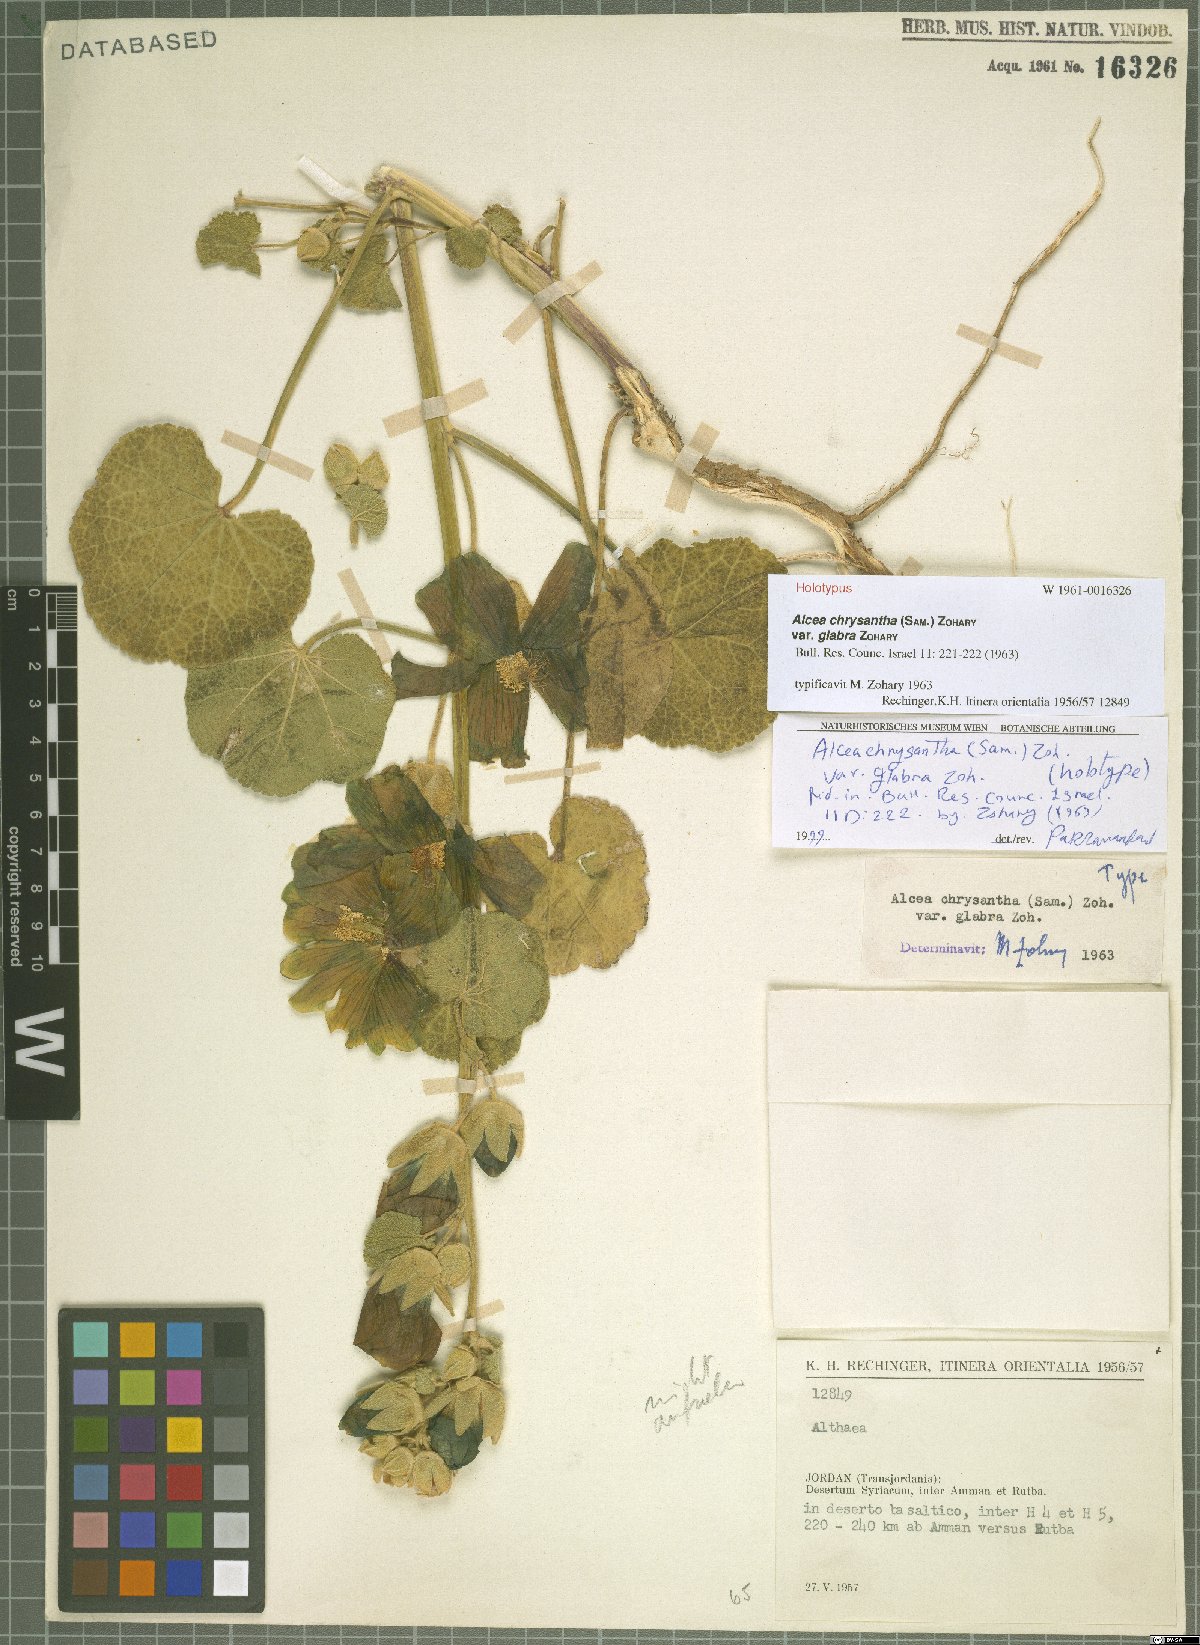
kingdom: Plantae
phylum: Tracheophyta
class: Magnoliopsida
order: Malvales
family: Malvaceae
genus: Alcea
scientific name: Alcea chrysantha
